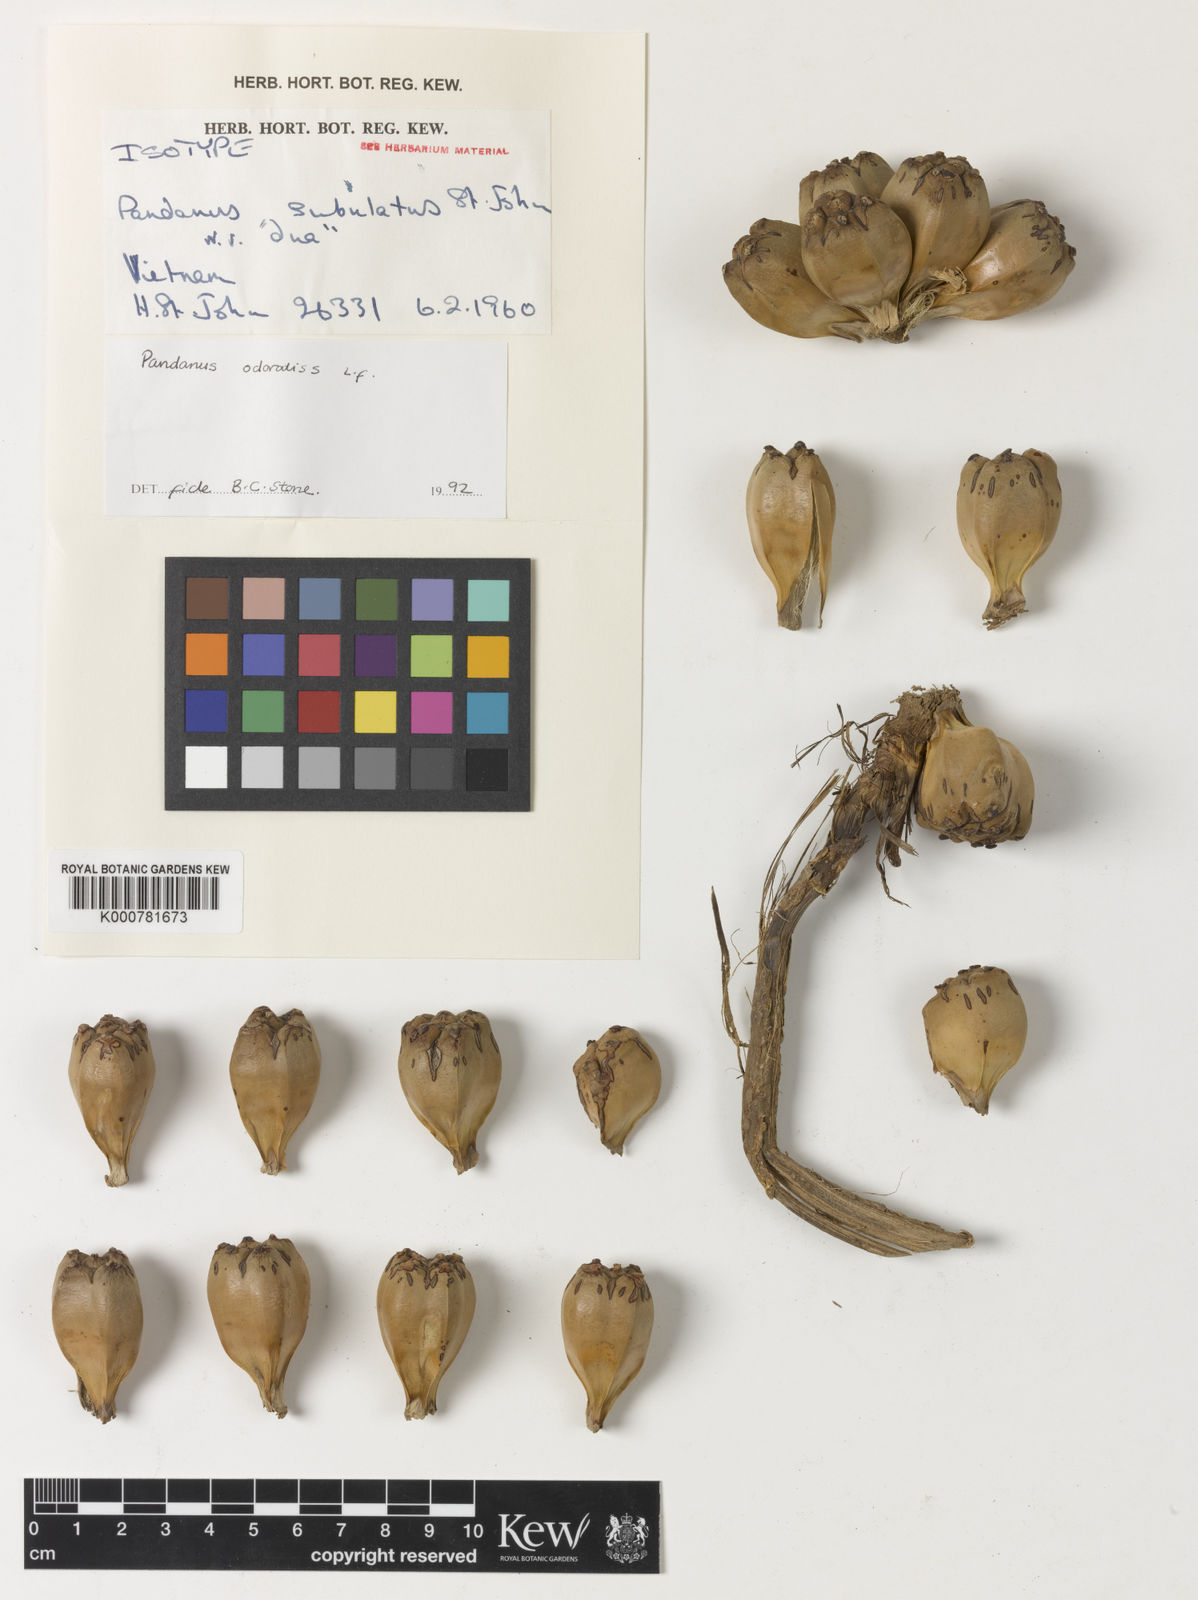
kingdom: Plantae
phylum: Tracheophyta
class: Liliopsida
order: Pandanales
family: Pandanaceae
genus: Pandanus
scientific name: Pandanus odorifer
